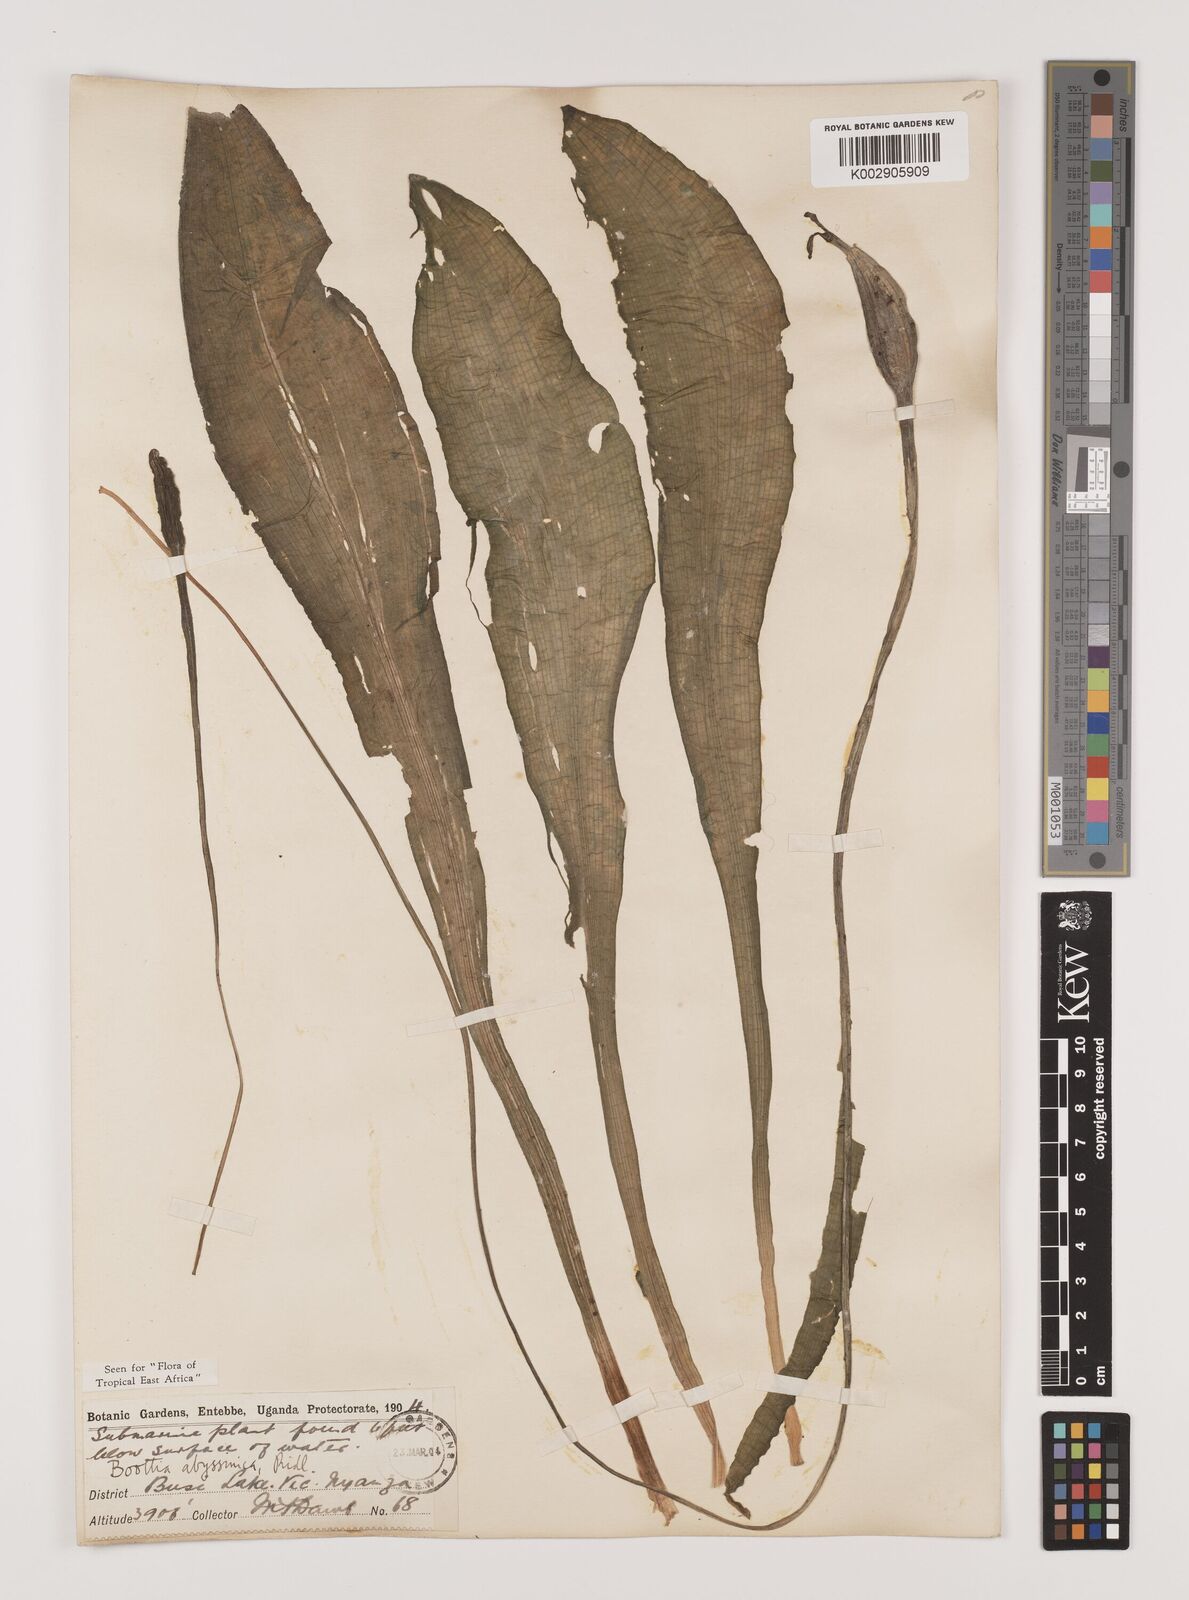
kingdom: Plantae
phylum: Tracheophyta
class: Liliopsida
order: Alismatales
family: Hydrocharitaceae
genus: Ottelia
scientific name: Ottelia ulvifolia
